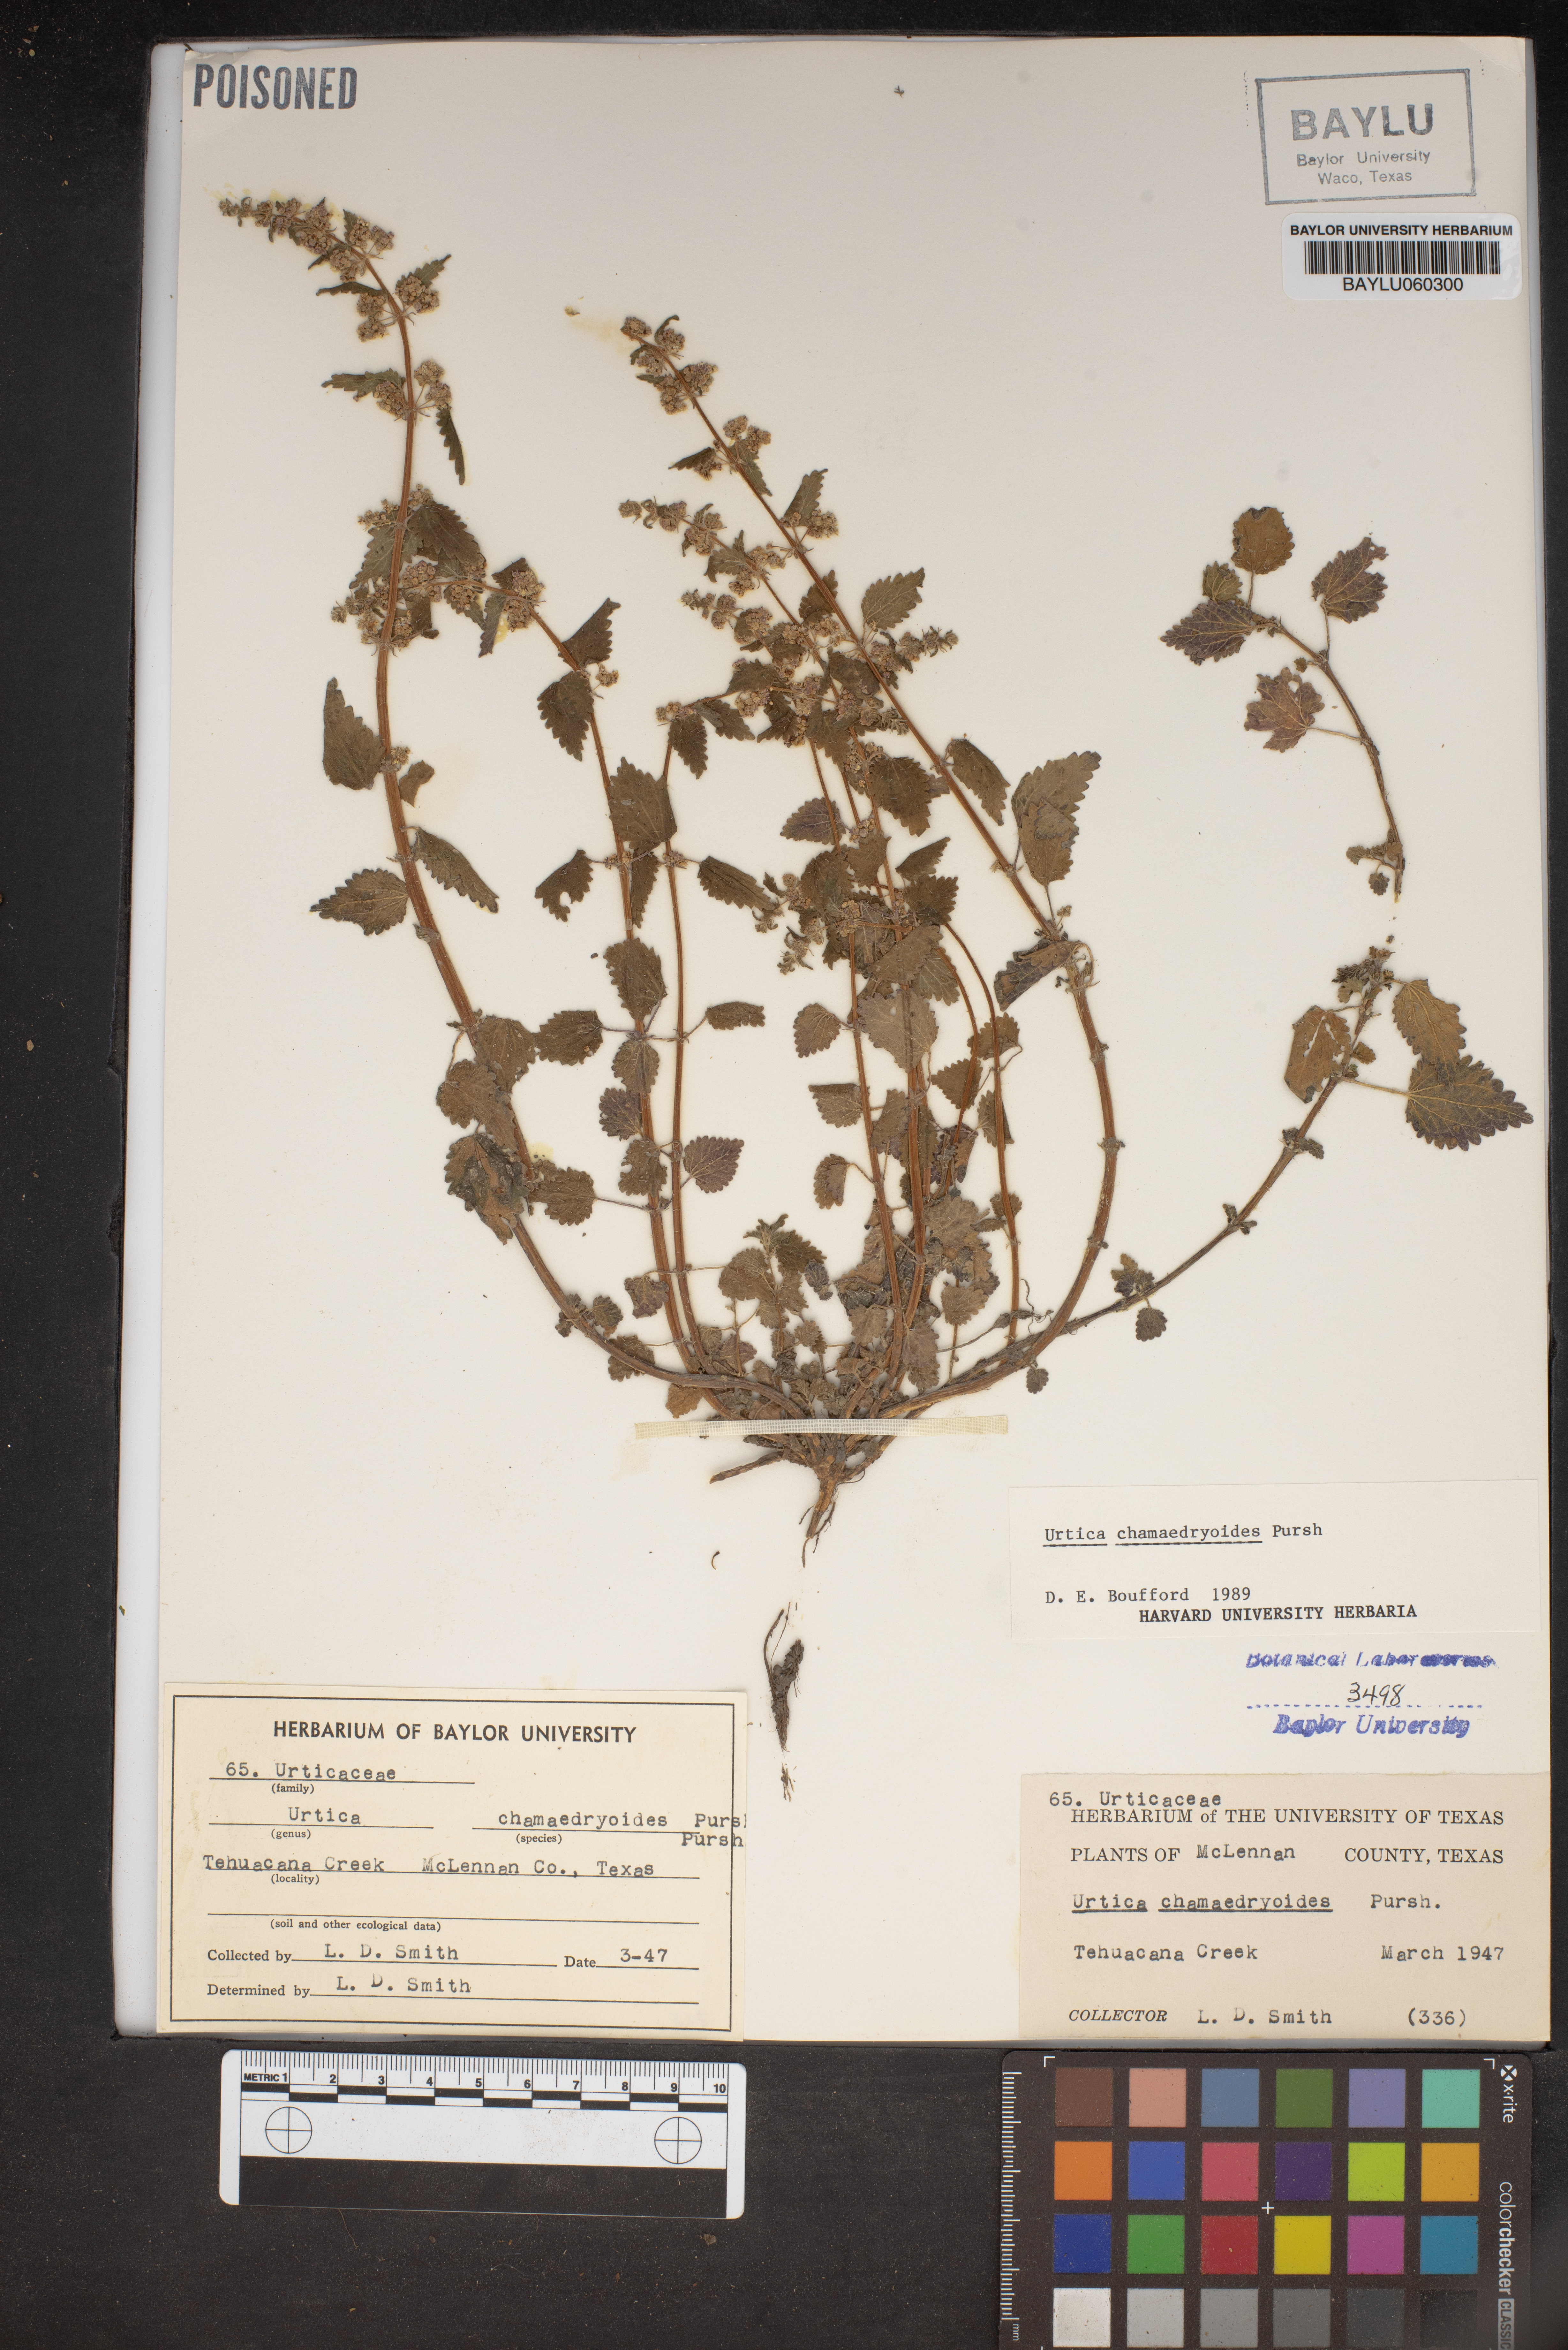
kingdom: Plantae
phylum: Tracheophyta
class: Magnoliopsida
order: Rosales
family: Urticaceae
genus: Urtica
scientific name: Urtica chamaedryoides
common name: Heart-leaf nettle
